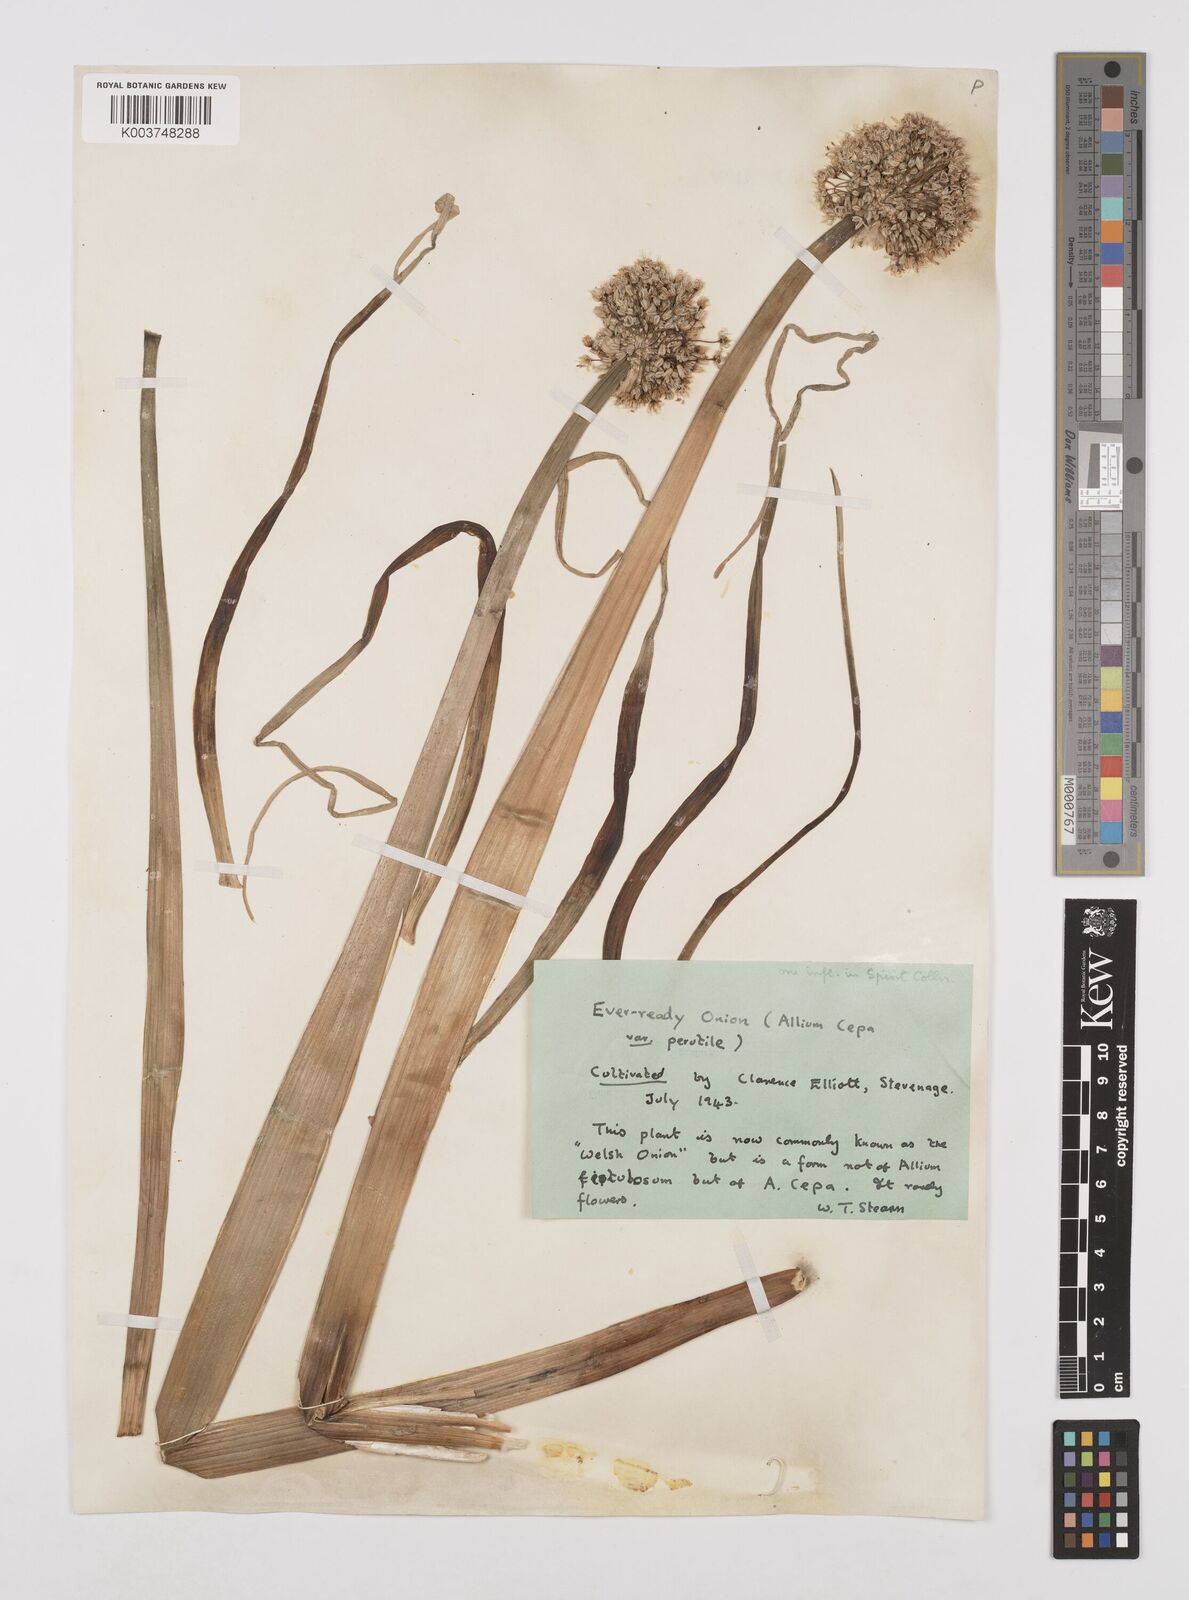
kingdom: Plantae
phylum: Tracheophyta
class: Liliopsida
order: Asparagales
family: Amaryllidaceae
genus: Allium
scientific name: Allium cepa
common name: Onion
